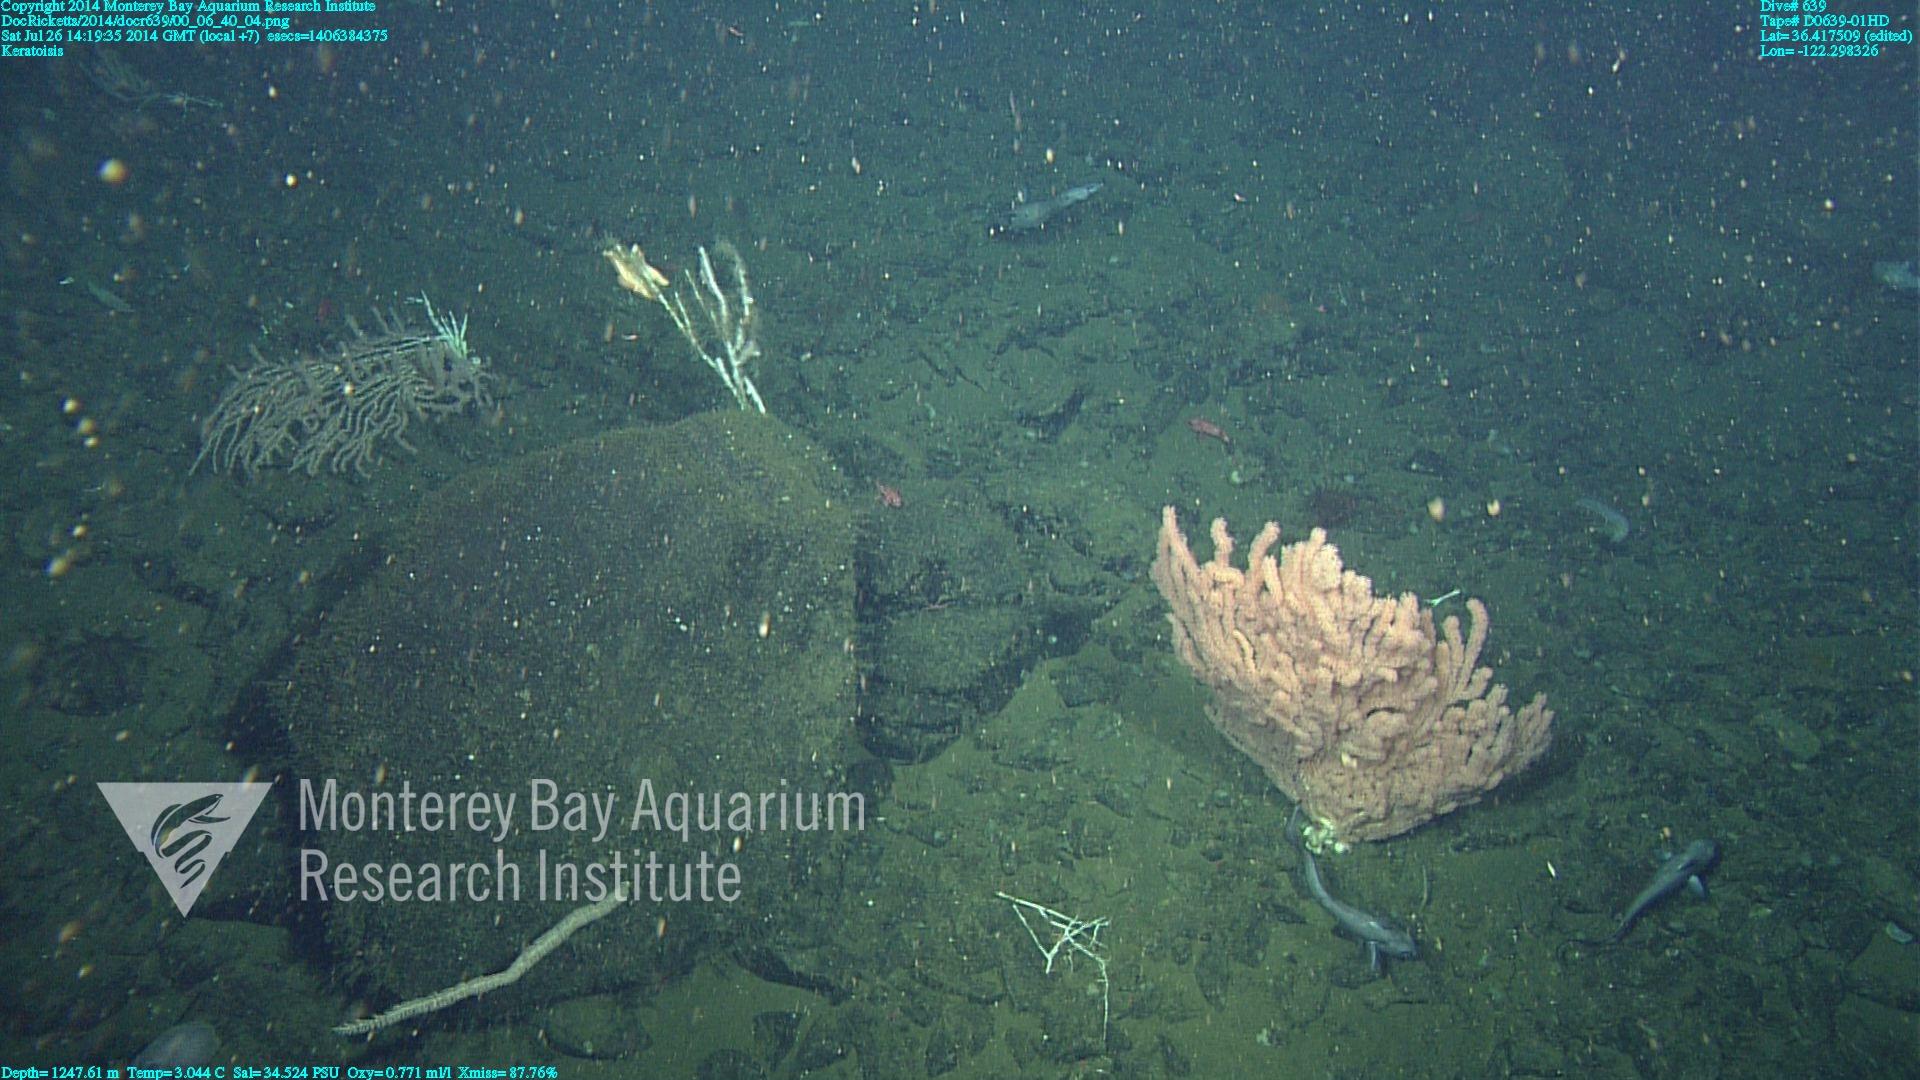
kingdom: Animalia
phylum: Cnidaria
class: Anthozoa
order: Scleralcyonacea
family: Keratoisididae
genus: Keratoisis
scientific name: Keratoisis
